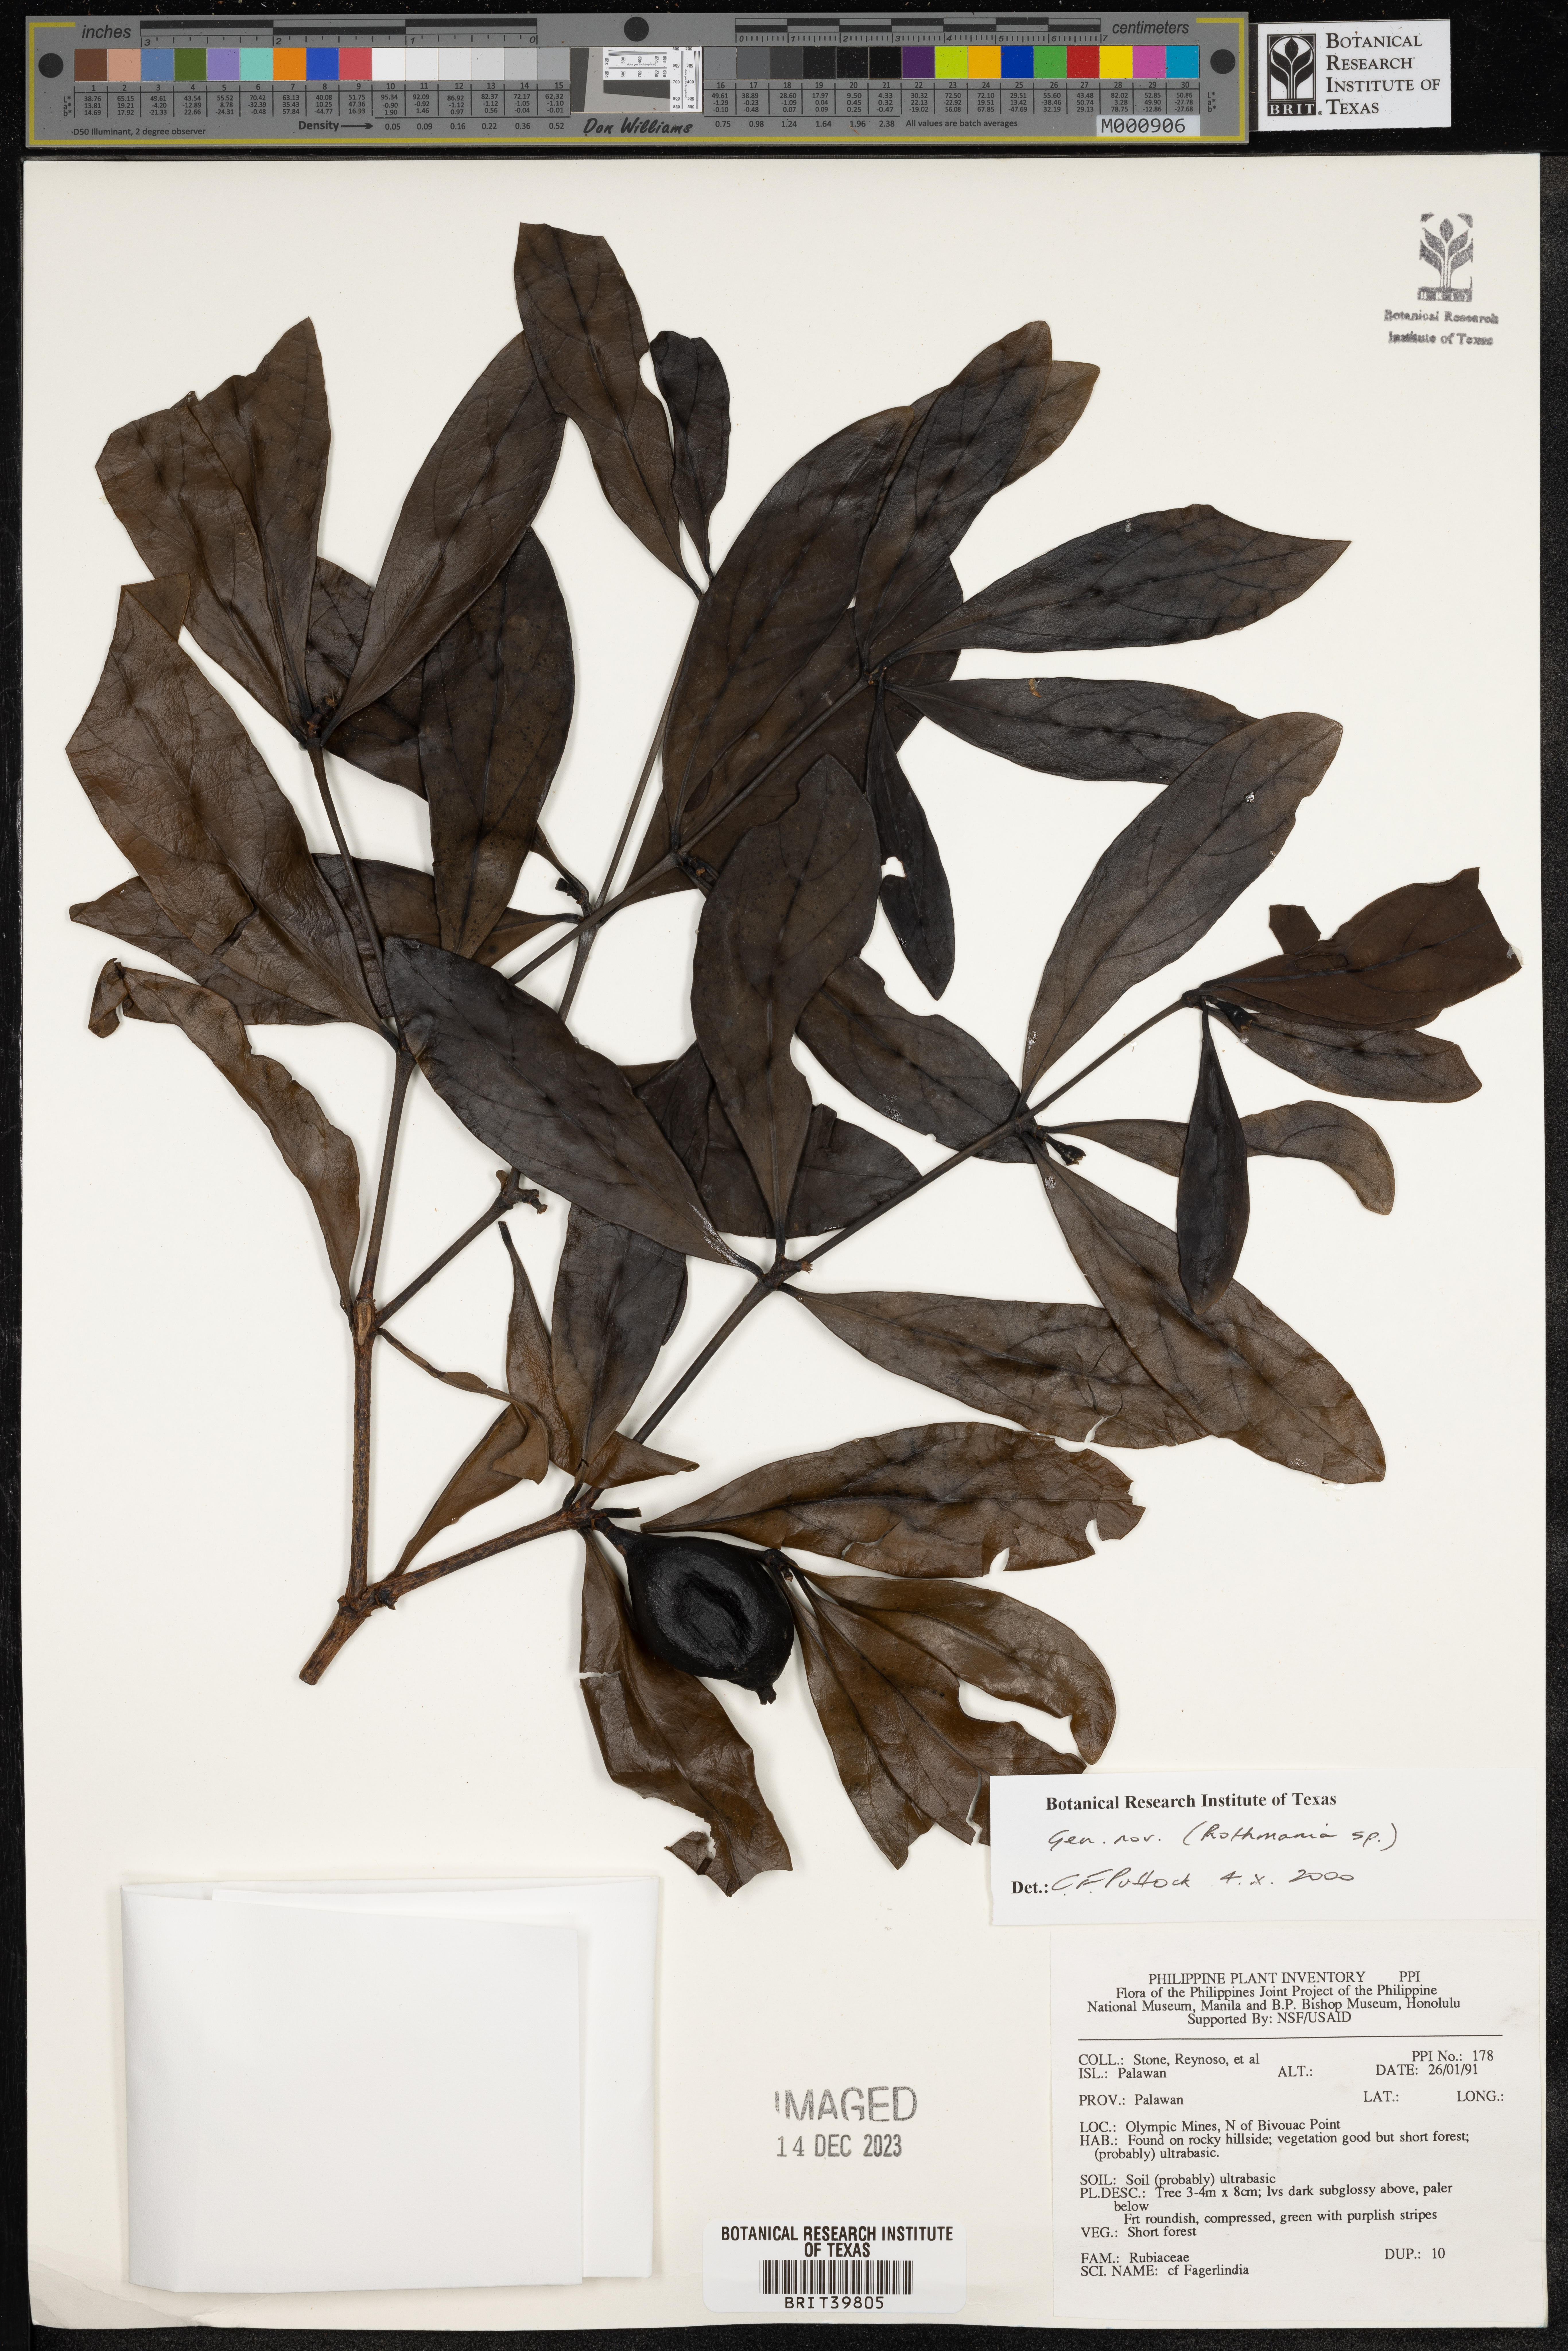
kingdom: Plantae
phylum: Tracheophyta
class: Magnoliopsida
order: Gentianales
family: Rubiaceae
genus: Rothmannia
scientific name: Rothmannia
